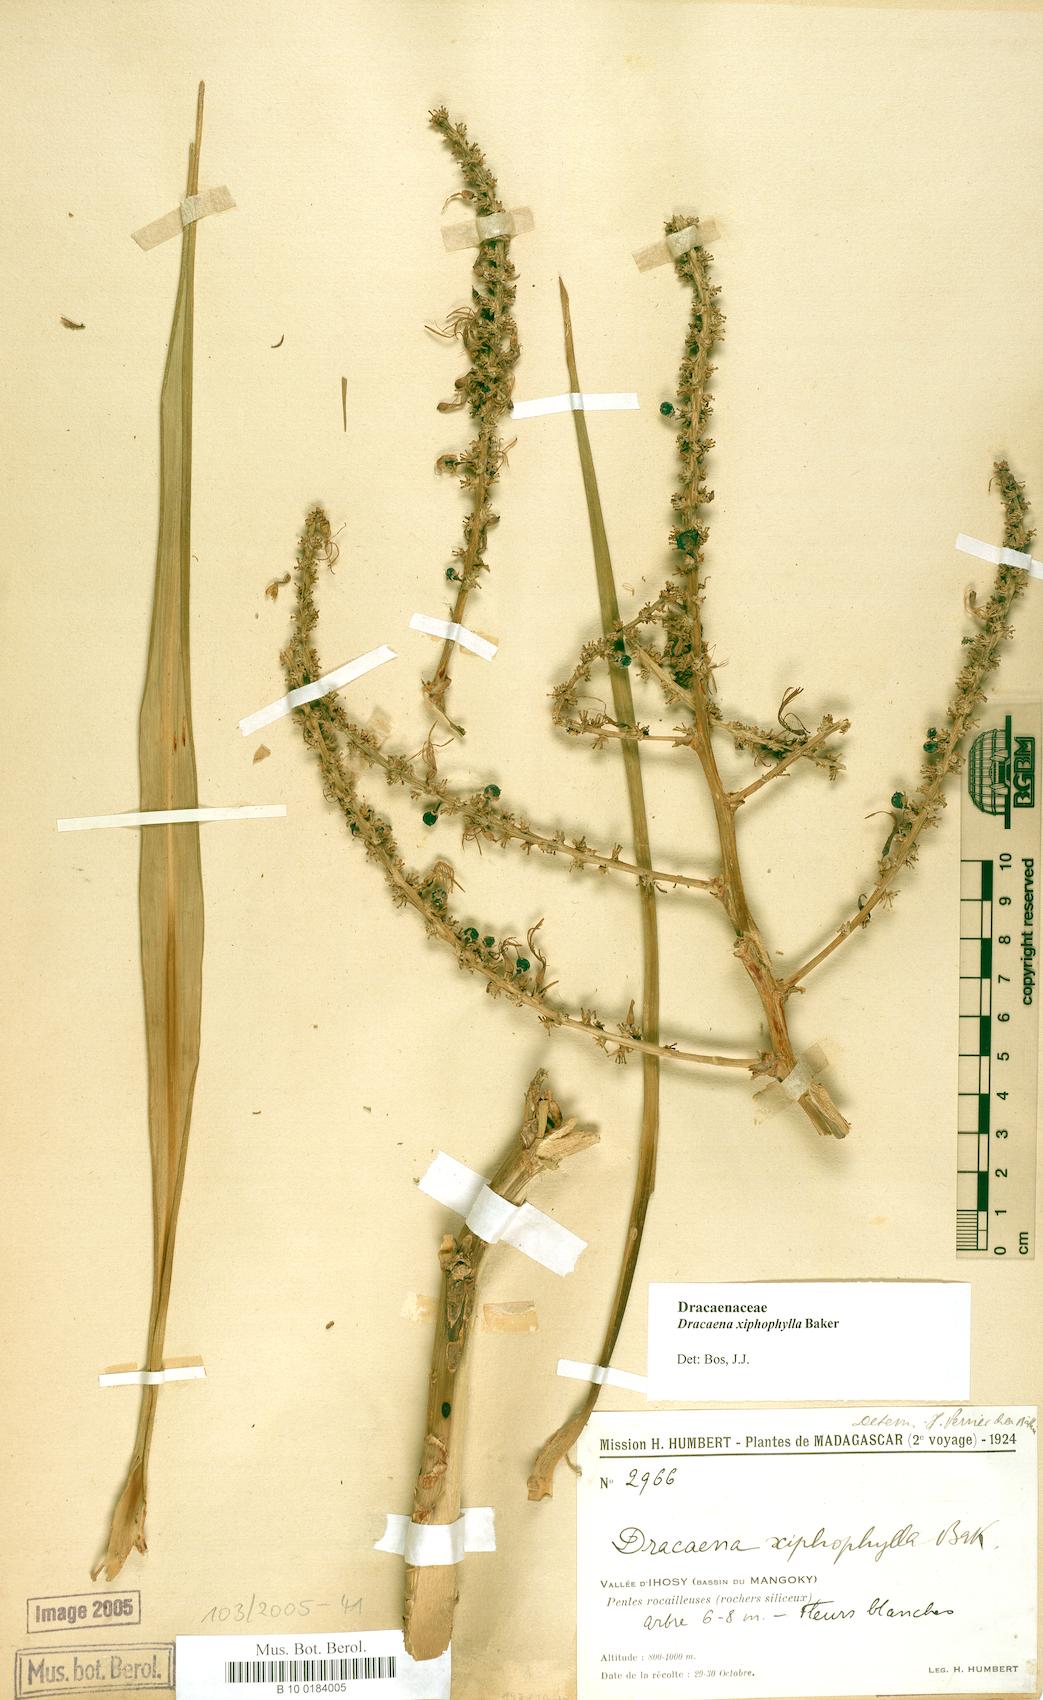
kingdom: Plantae
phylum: Tracheophyta
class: Liliopsida
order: Asparagales
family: Asparagaceae
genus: Dracaena
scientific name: Dracaena xiphophylla
